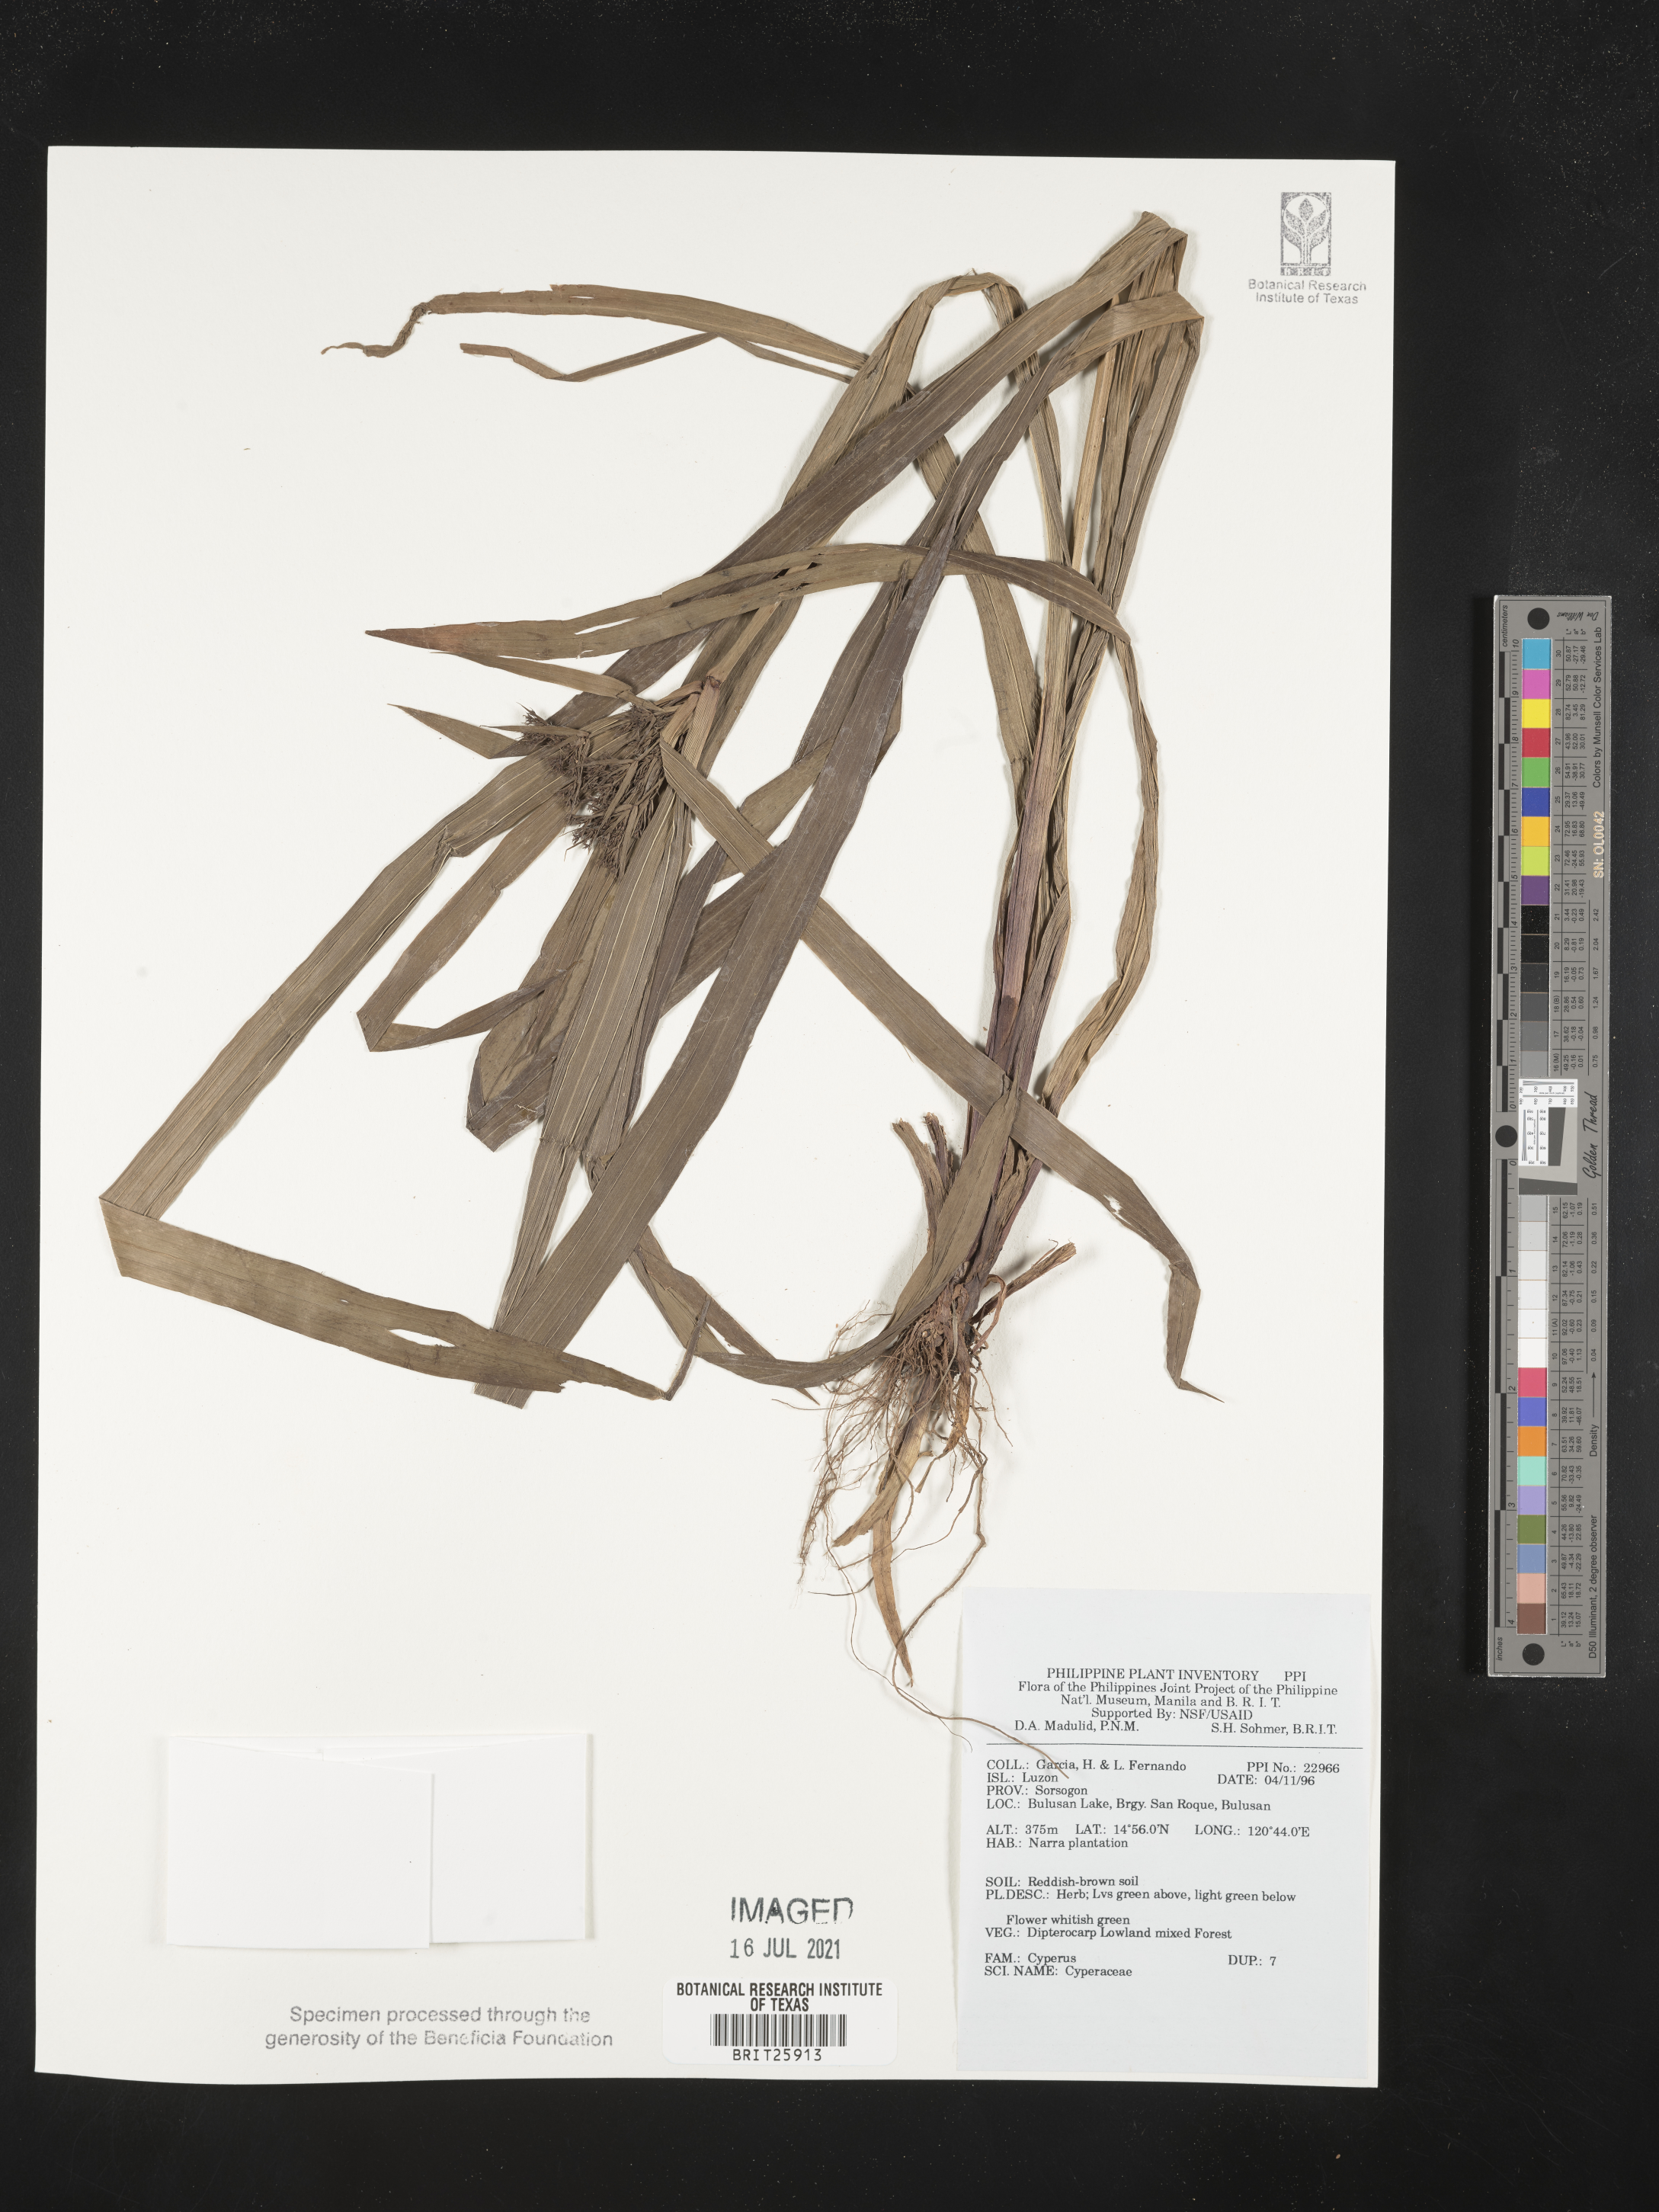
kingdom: Plantae
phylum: Tracheophyta
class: Liliopsida
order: Poales
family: Cyperaceae
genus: Cyperus
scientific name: Cyperus
